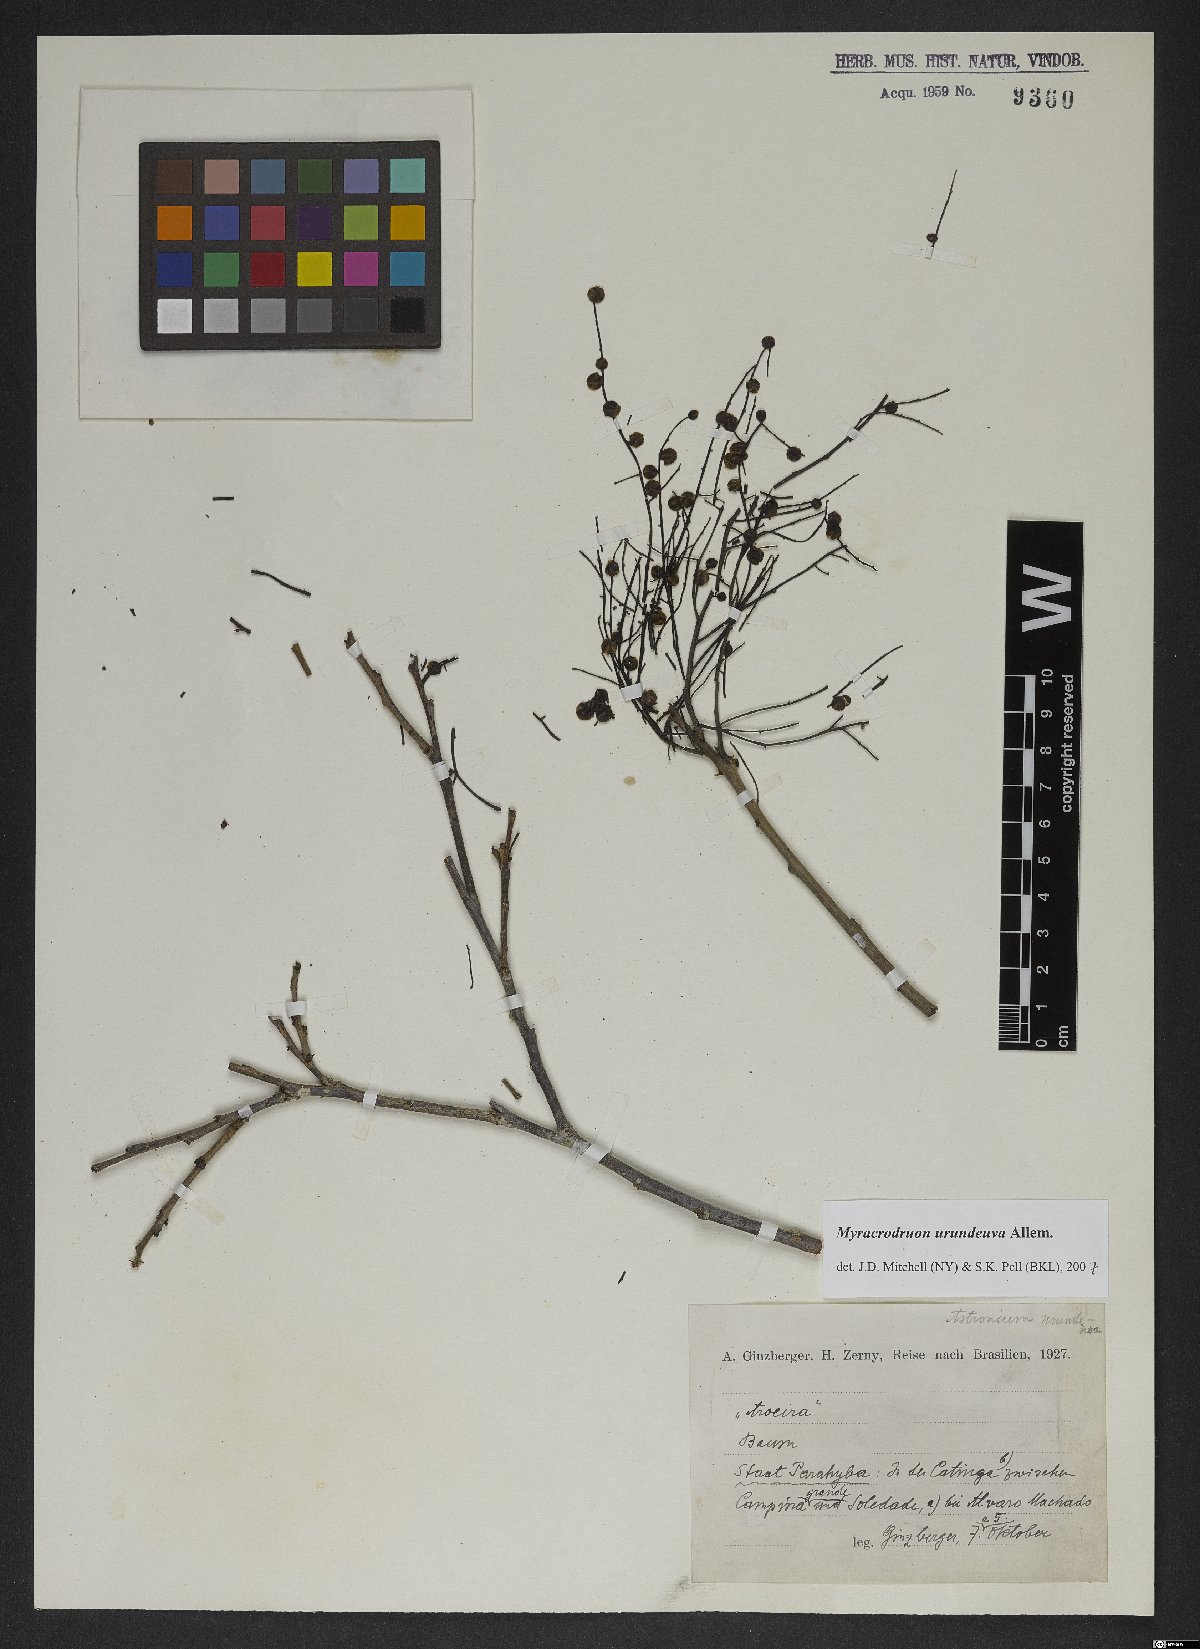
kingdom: Plantae
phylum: Tracheophyta
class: Magnoliopsida
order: Sapindales
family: Anacardiaceae
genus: Myracrodruon
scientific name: Myracrodruon urundeuva
